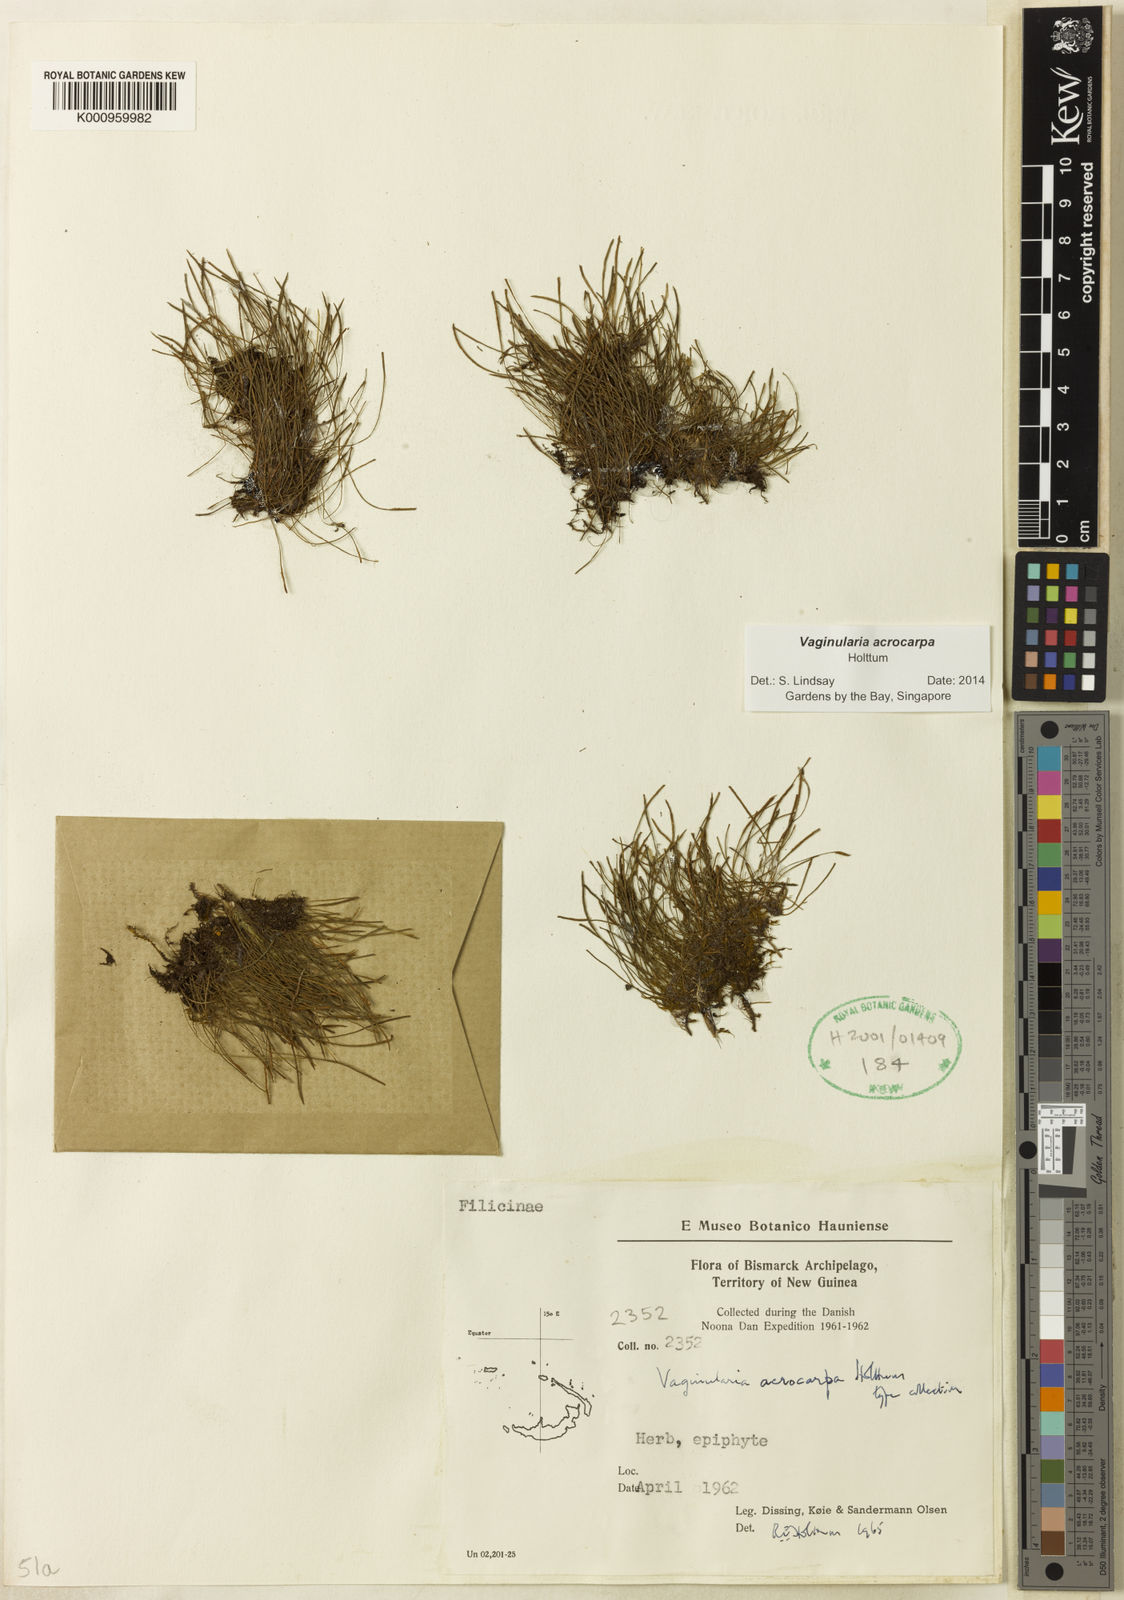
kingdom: Plantae
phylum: Tracheophyta
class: Polypodiopsida
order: Polypodiales
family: Pteridaceae
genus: Vaginularia
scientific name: Vaginularia acrocarpa
